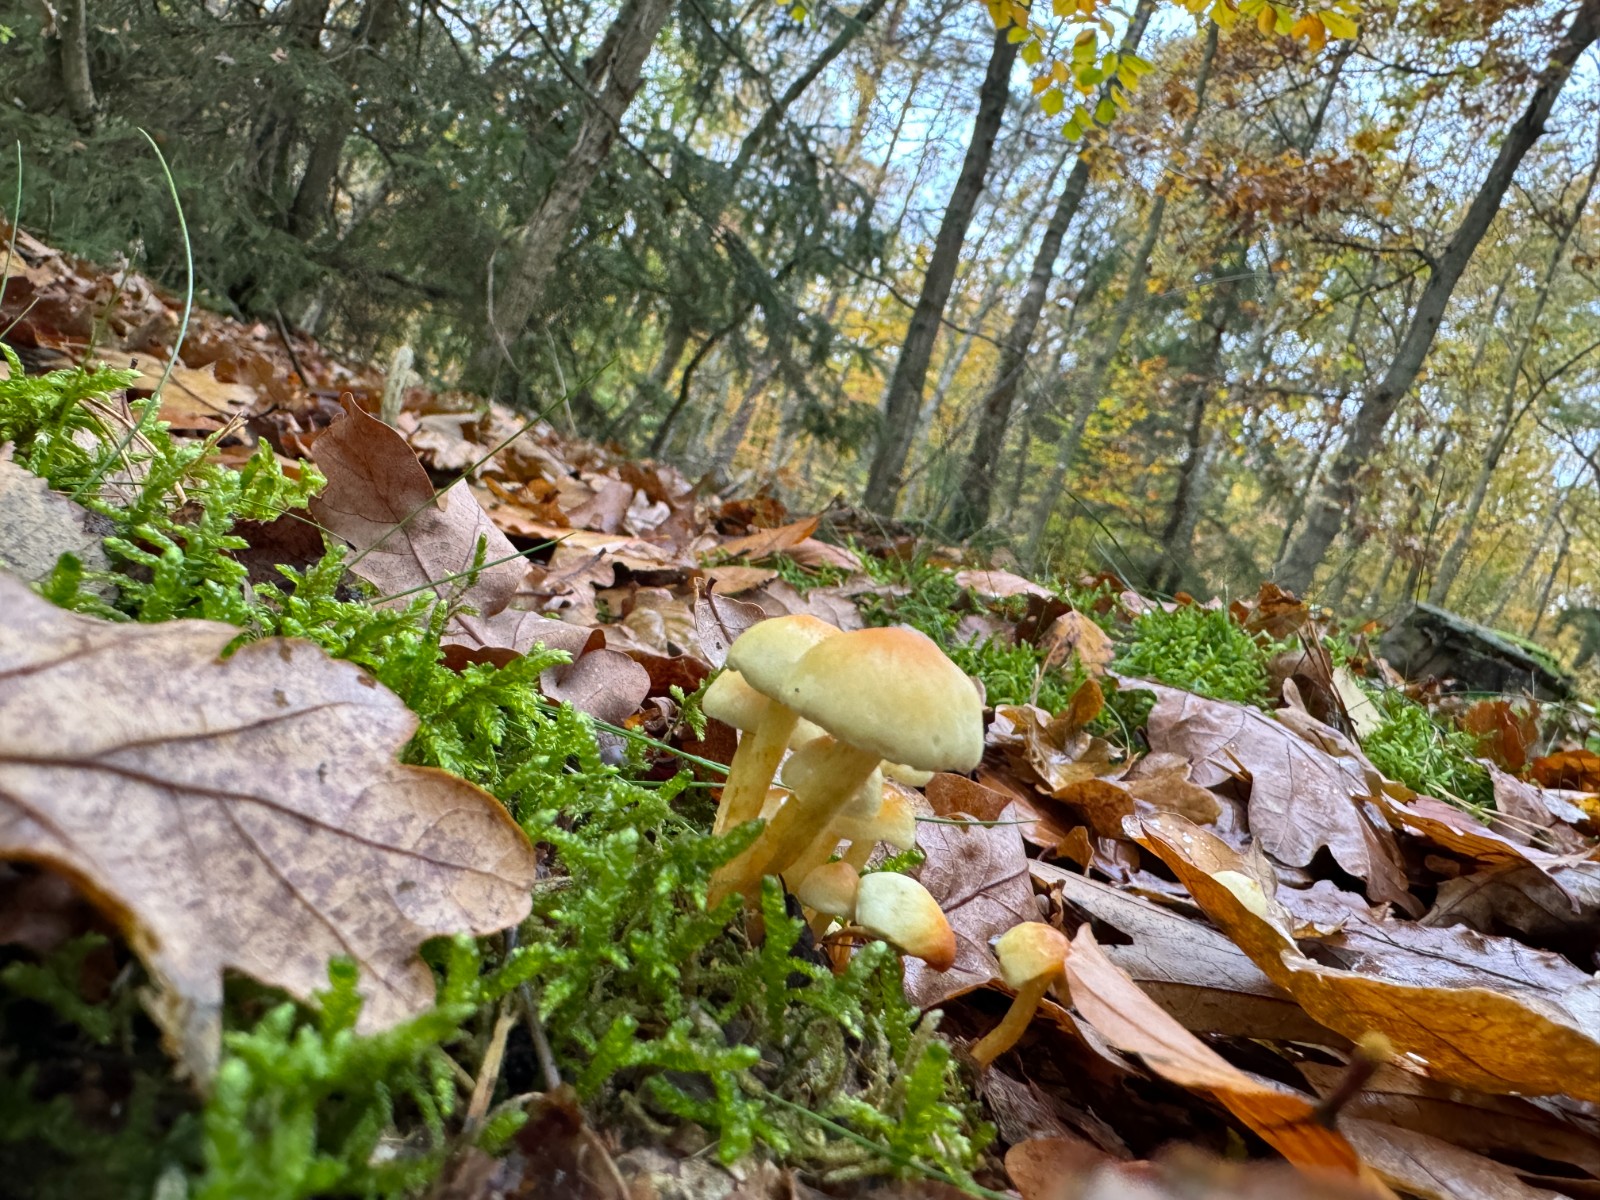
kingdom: Fungi
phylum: Basidiomycota
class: Agaricomycetes
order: Agaricales
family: Strophariaceae
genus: Hypholoma
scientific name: Hypholoma fasciculare
